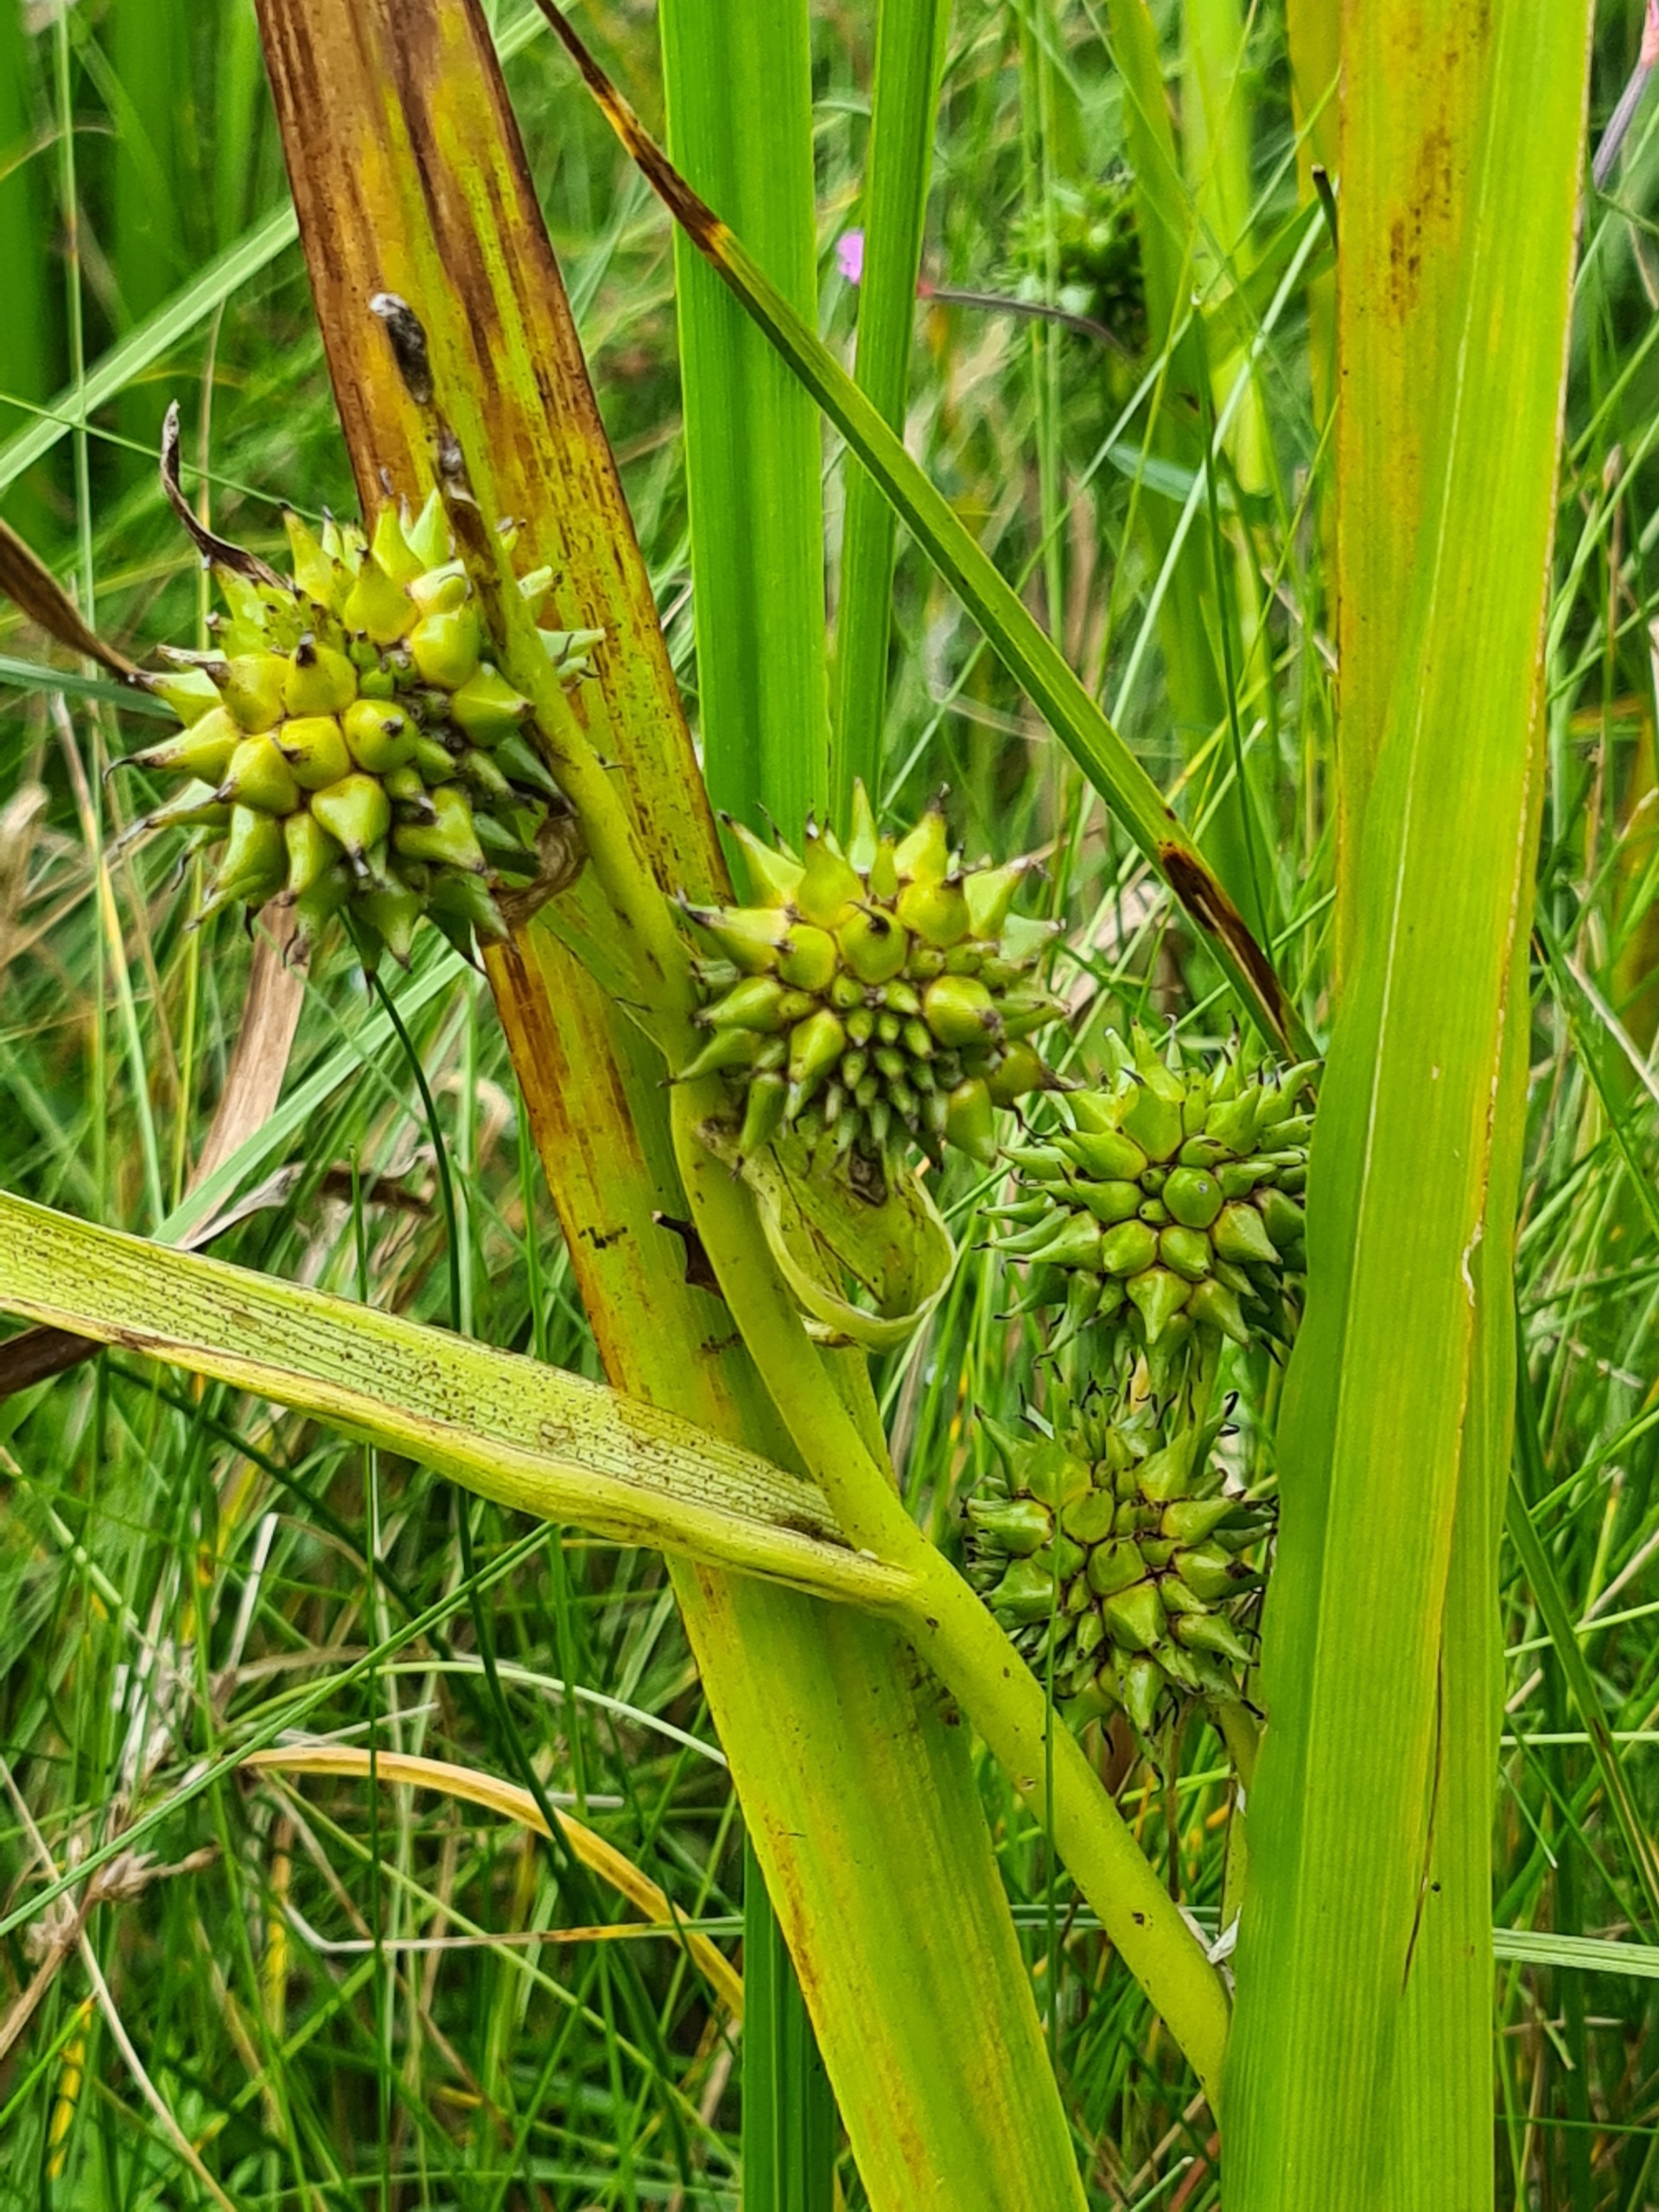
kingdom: Plantae
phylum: Tracheophyta
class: Liliopsida
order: Poales
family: Typhaceae
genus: Sparganium
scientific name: Sparganium erectum
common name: Ten-pindsvineknop
